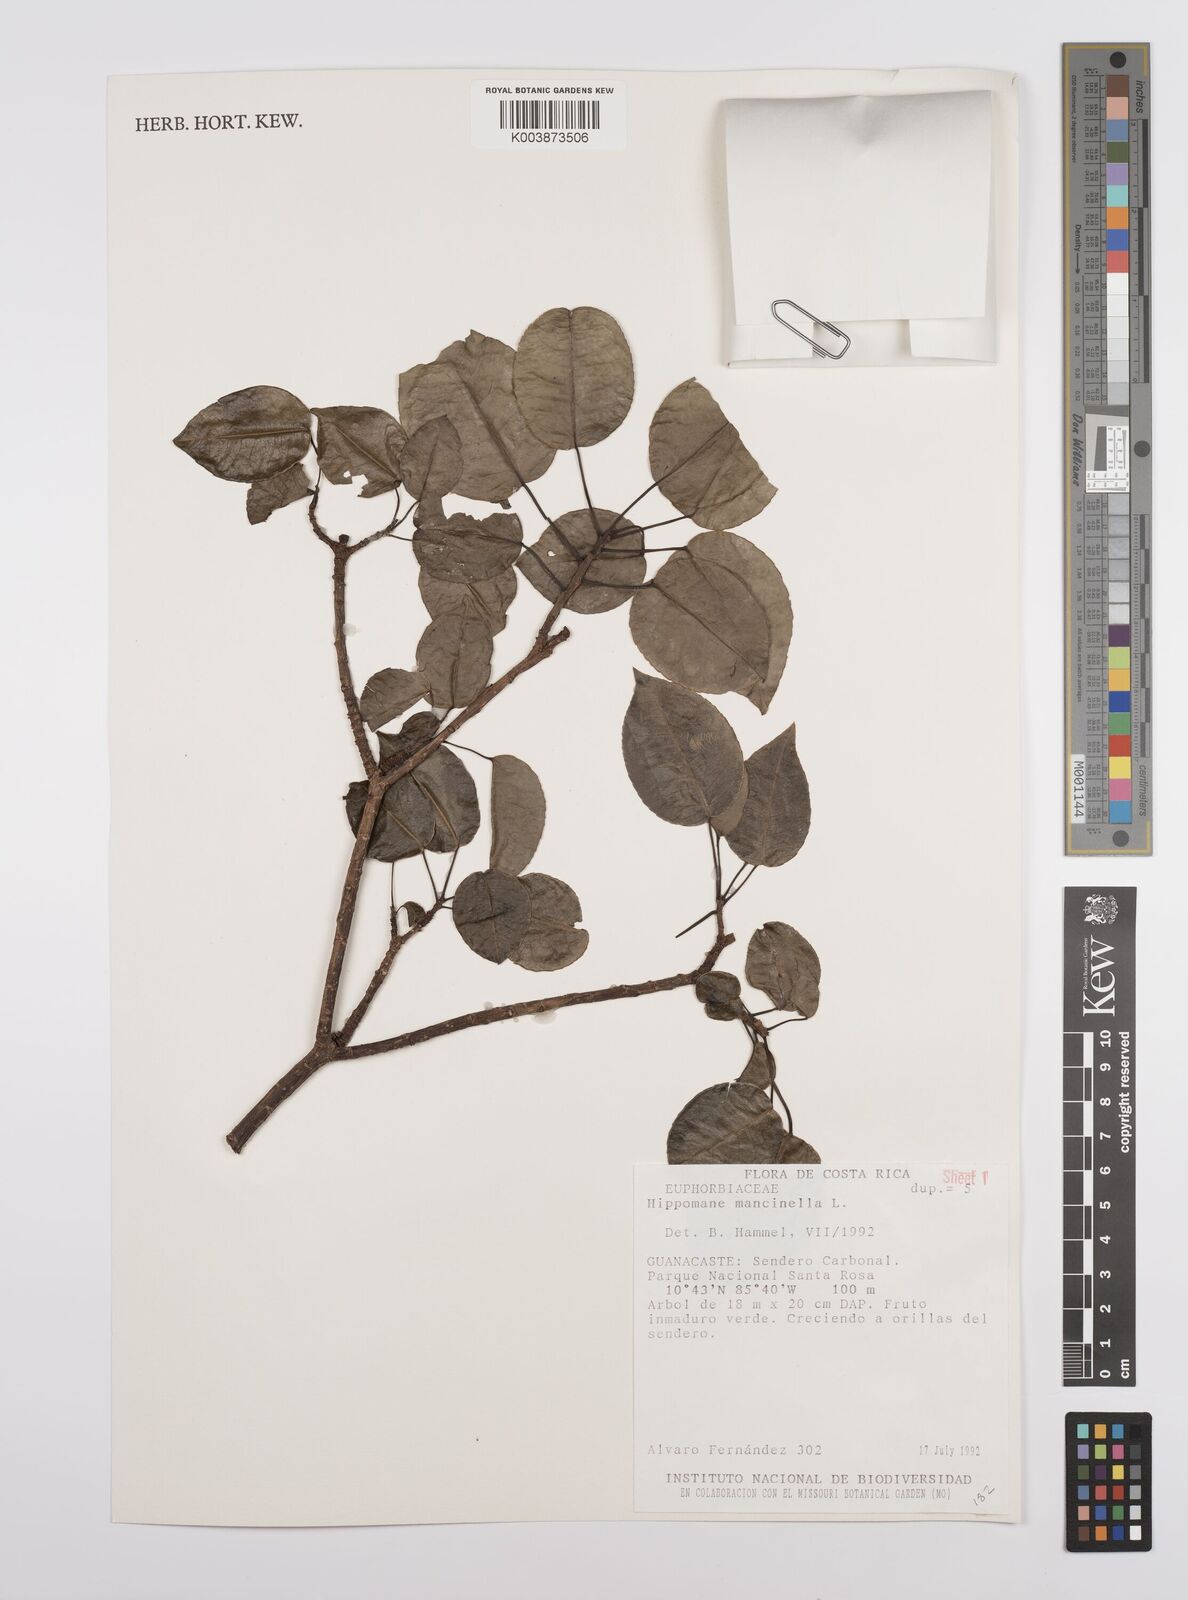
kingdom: Plantae
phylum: Tracheophyta
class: Magnoliopsida
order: Malpighiales
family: Euphorbiaceae
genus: Hippomane
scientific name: Hippomane mancinella
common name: Manchineel
